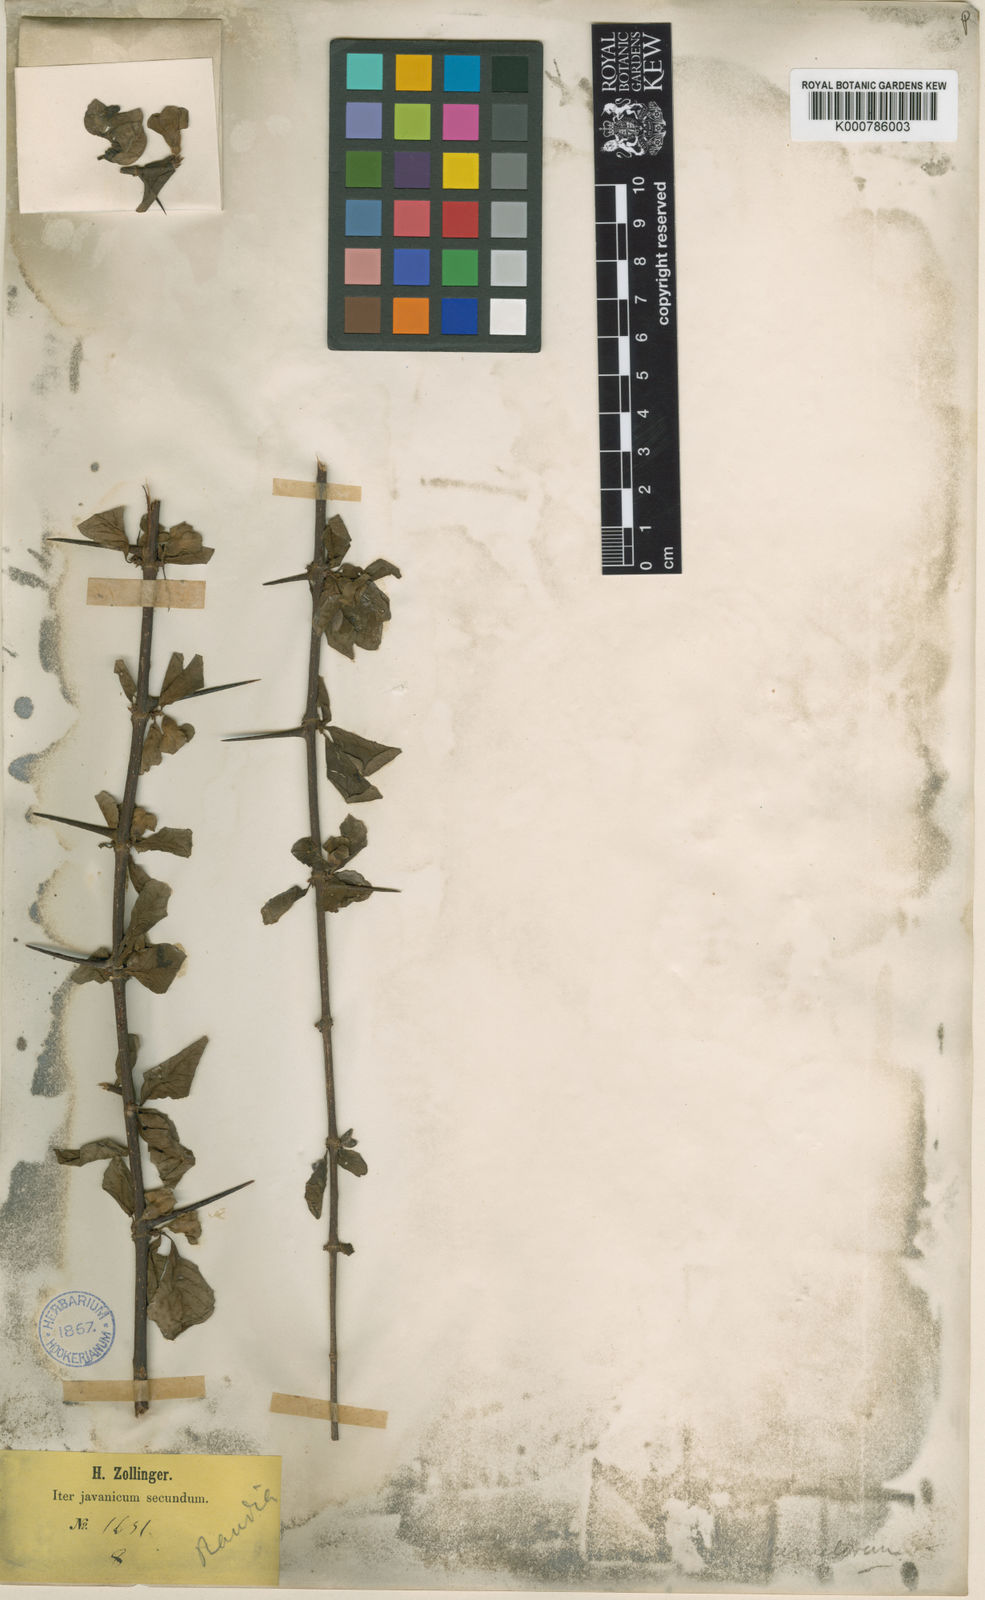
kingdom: Plantae
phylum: Tracheophyta
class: Magnoliopsida
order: Gentianales
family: Rubiaceae
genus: Catunaregam
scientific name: Catunaregam oocarpa
